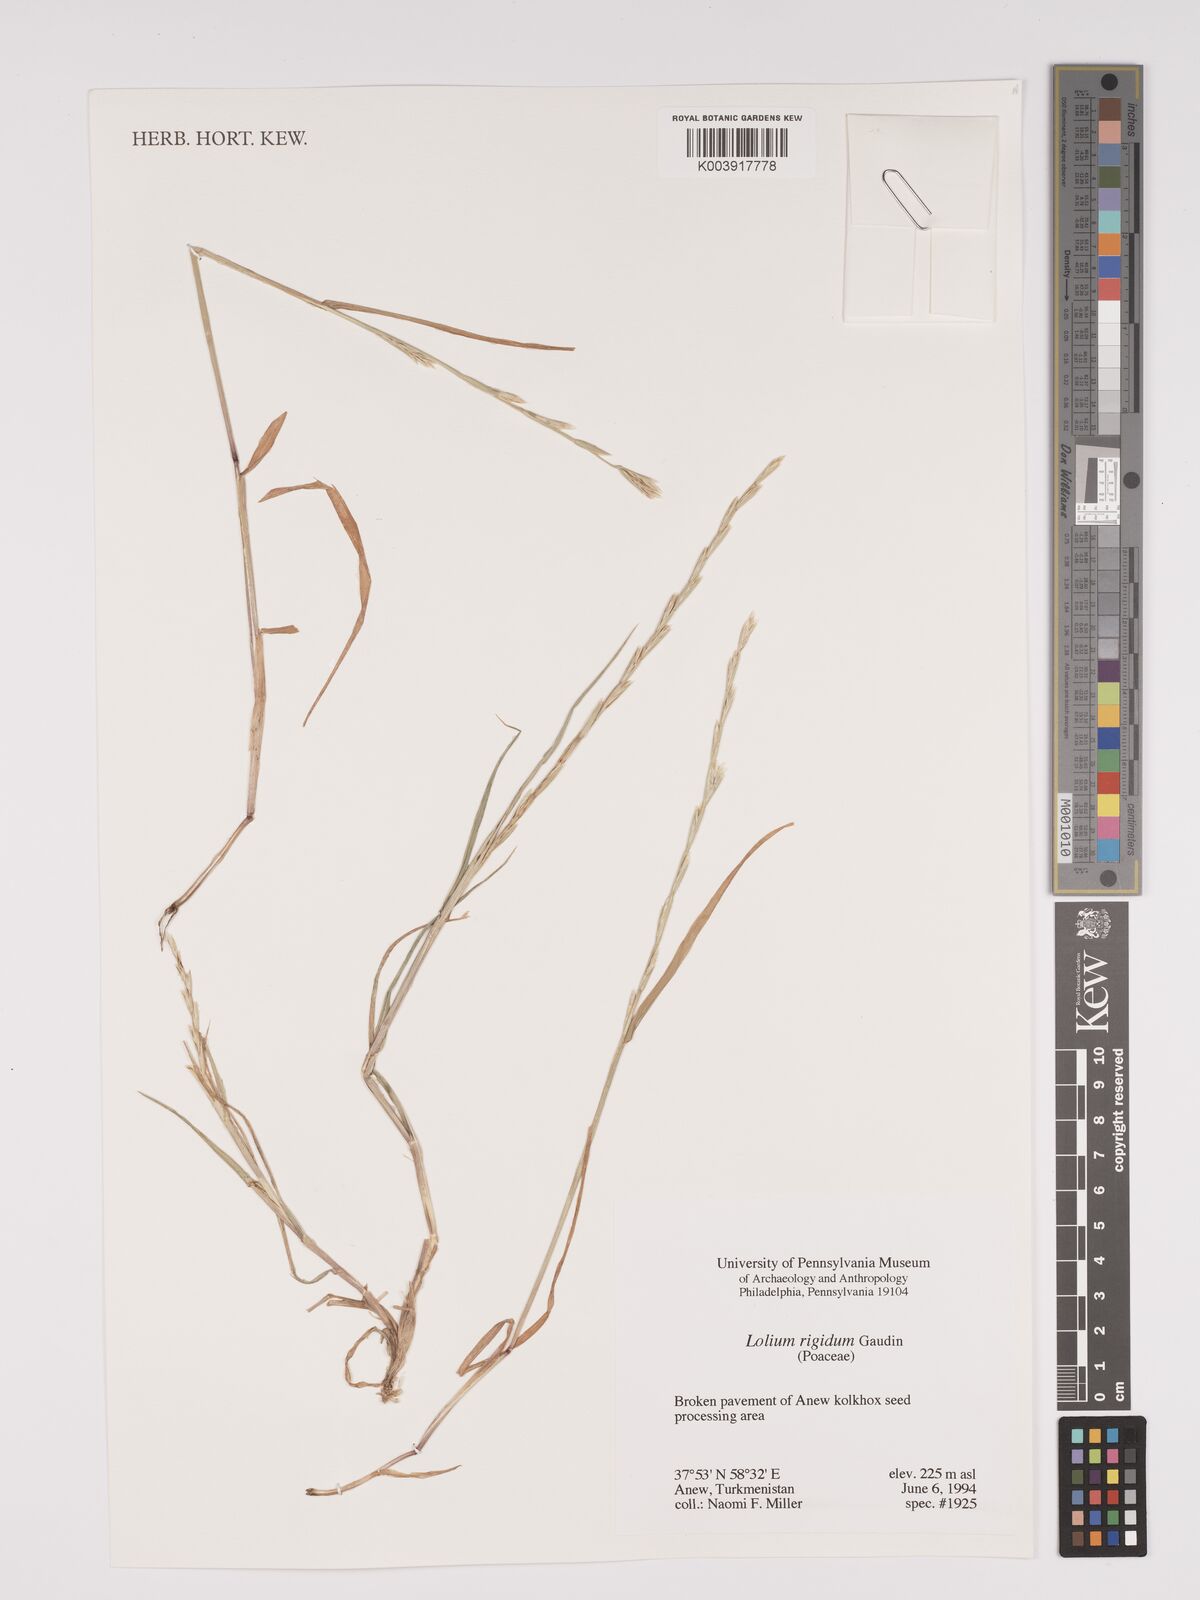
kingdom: Plantae
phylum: Tracheophyta
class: Liliopsida
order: Poales
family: Poaceae
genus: Lolium
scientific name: Lolium rigidum
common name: Wimmera ryegrass
